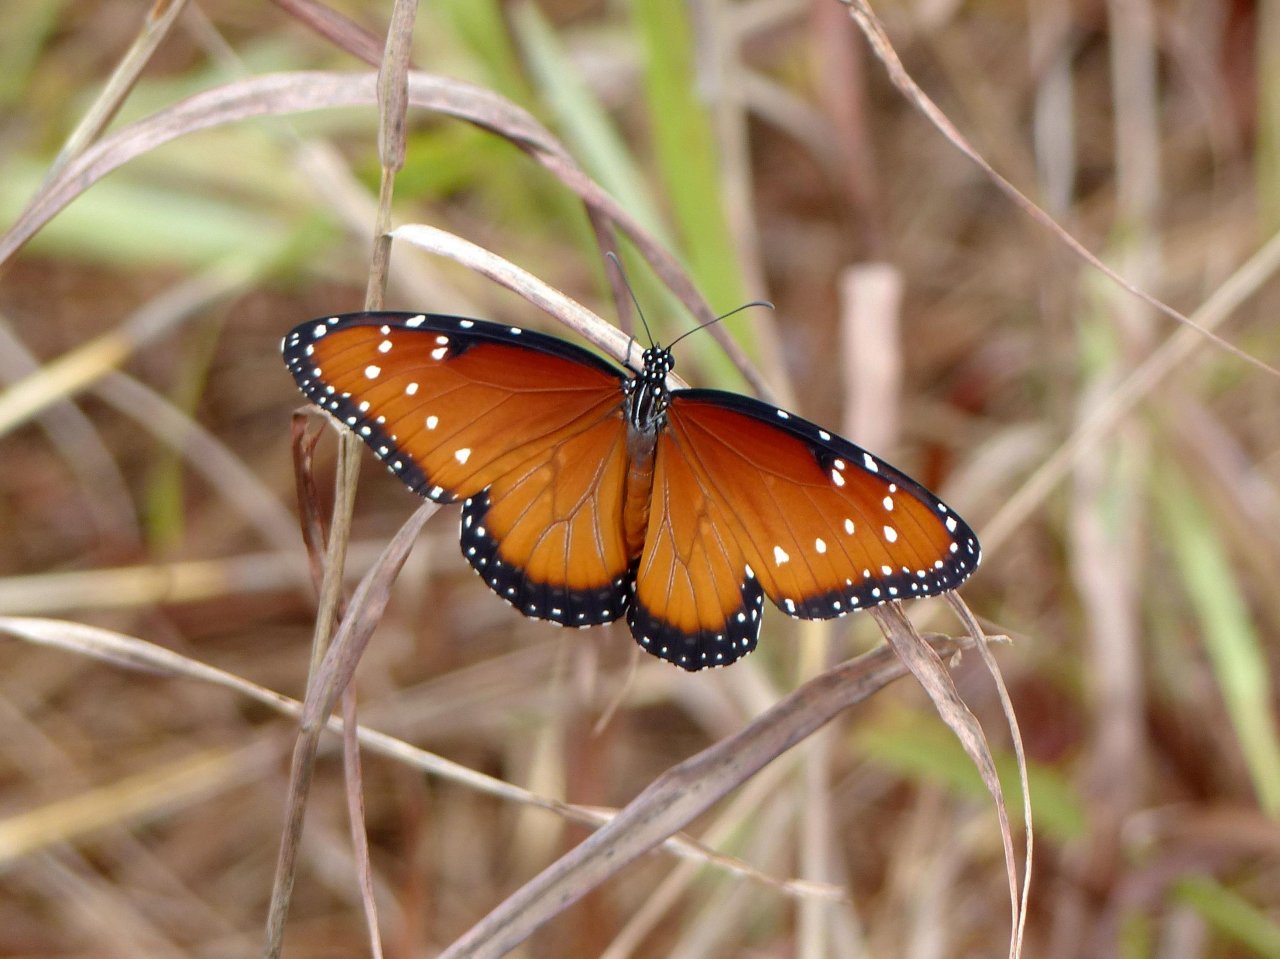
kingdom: Animalia
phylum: Arthropoda
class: Insecta
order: Lepidoptera
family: Nymphalidae
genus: Danaus
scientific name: Danaus gilippus
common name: Queen
